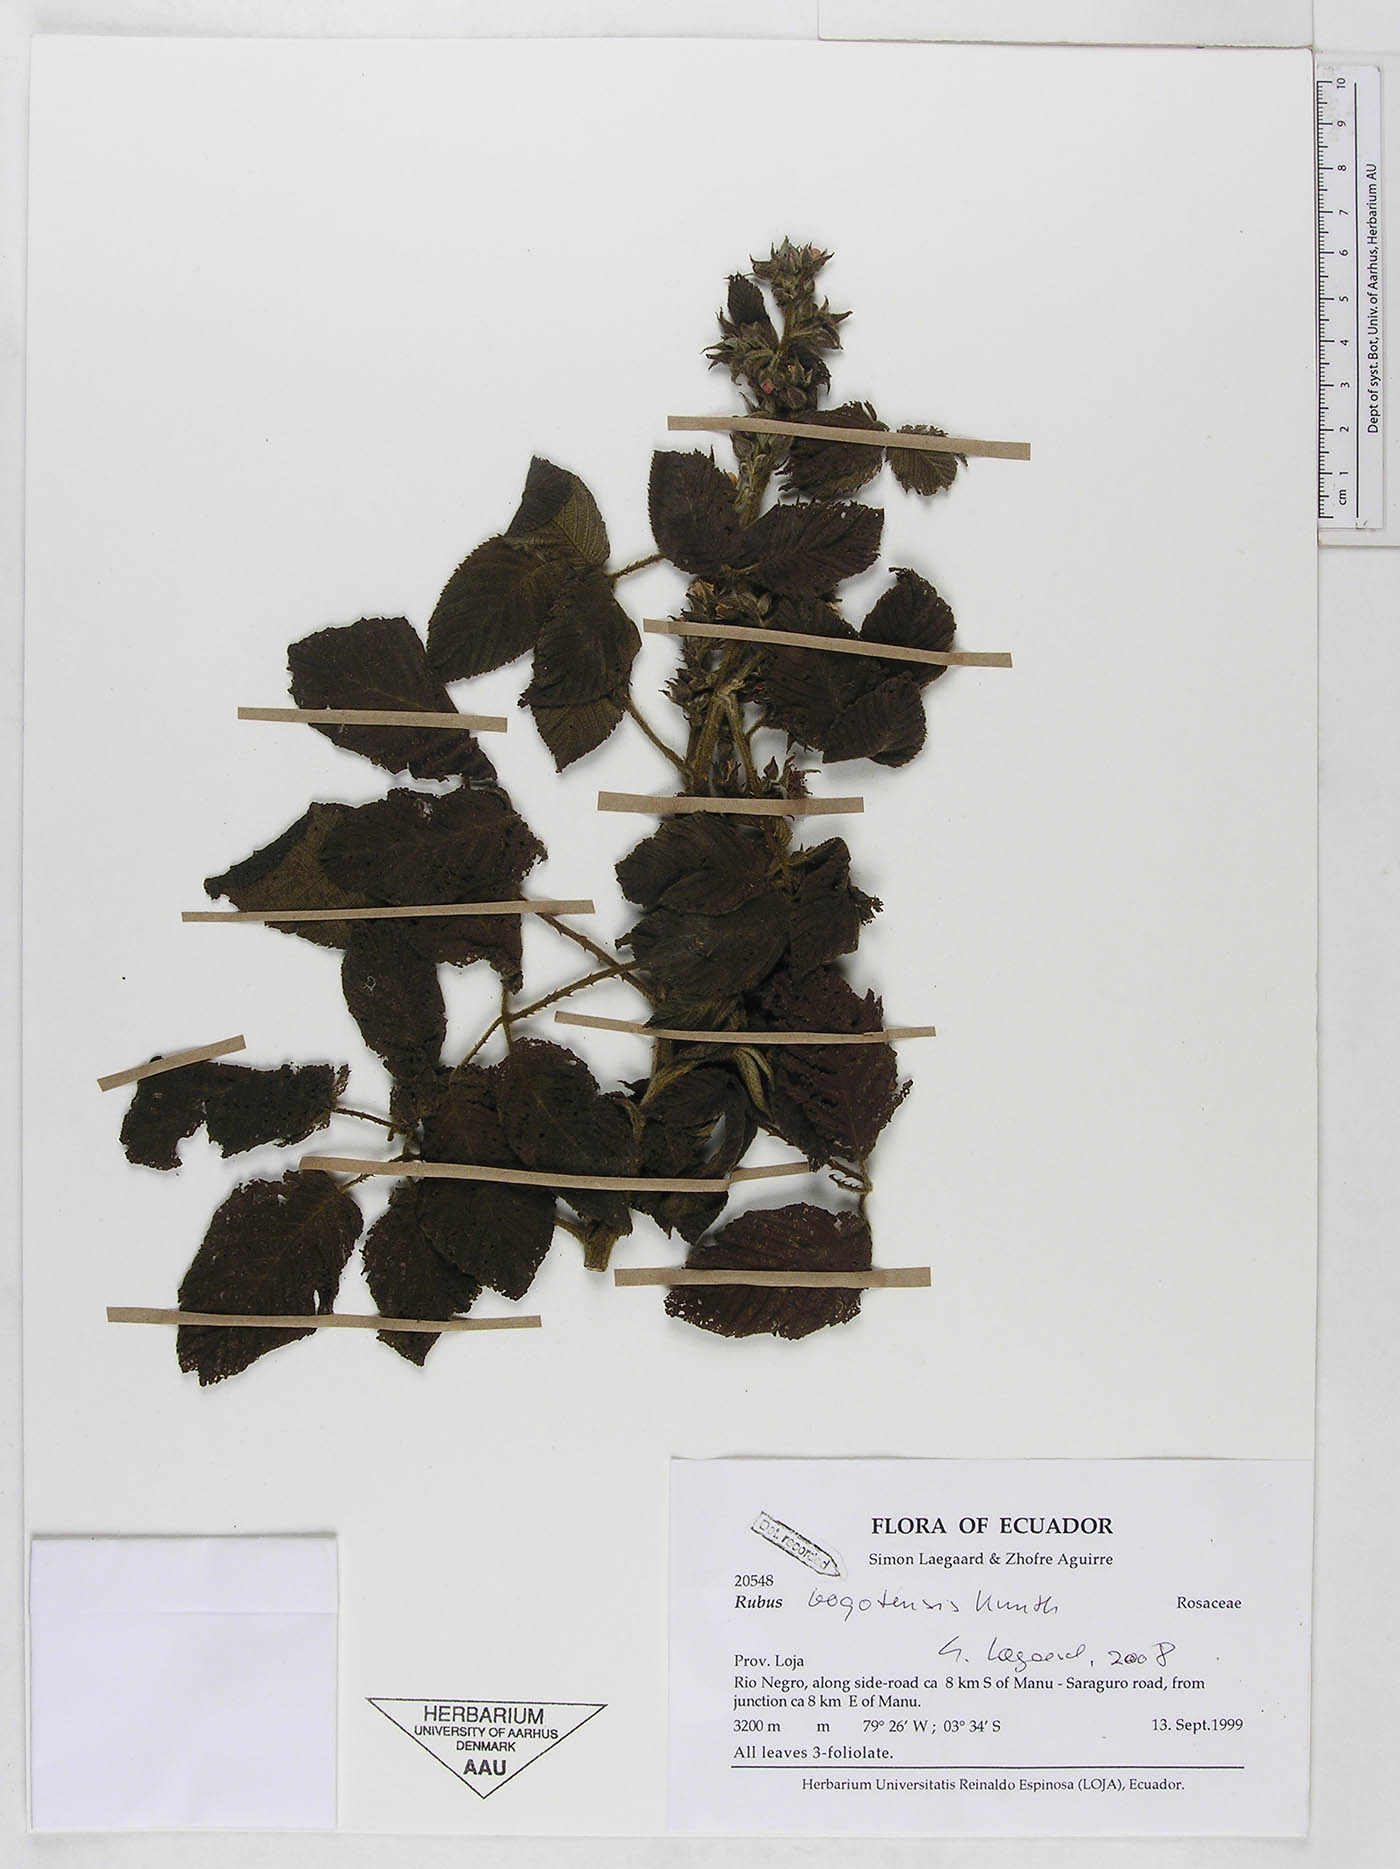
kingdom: Plantae
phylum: Tracheophyta
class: Magnoliopsida
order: Rosales
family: Rosaceae
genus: Rubus
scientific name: Rubus bogotensis
